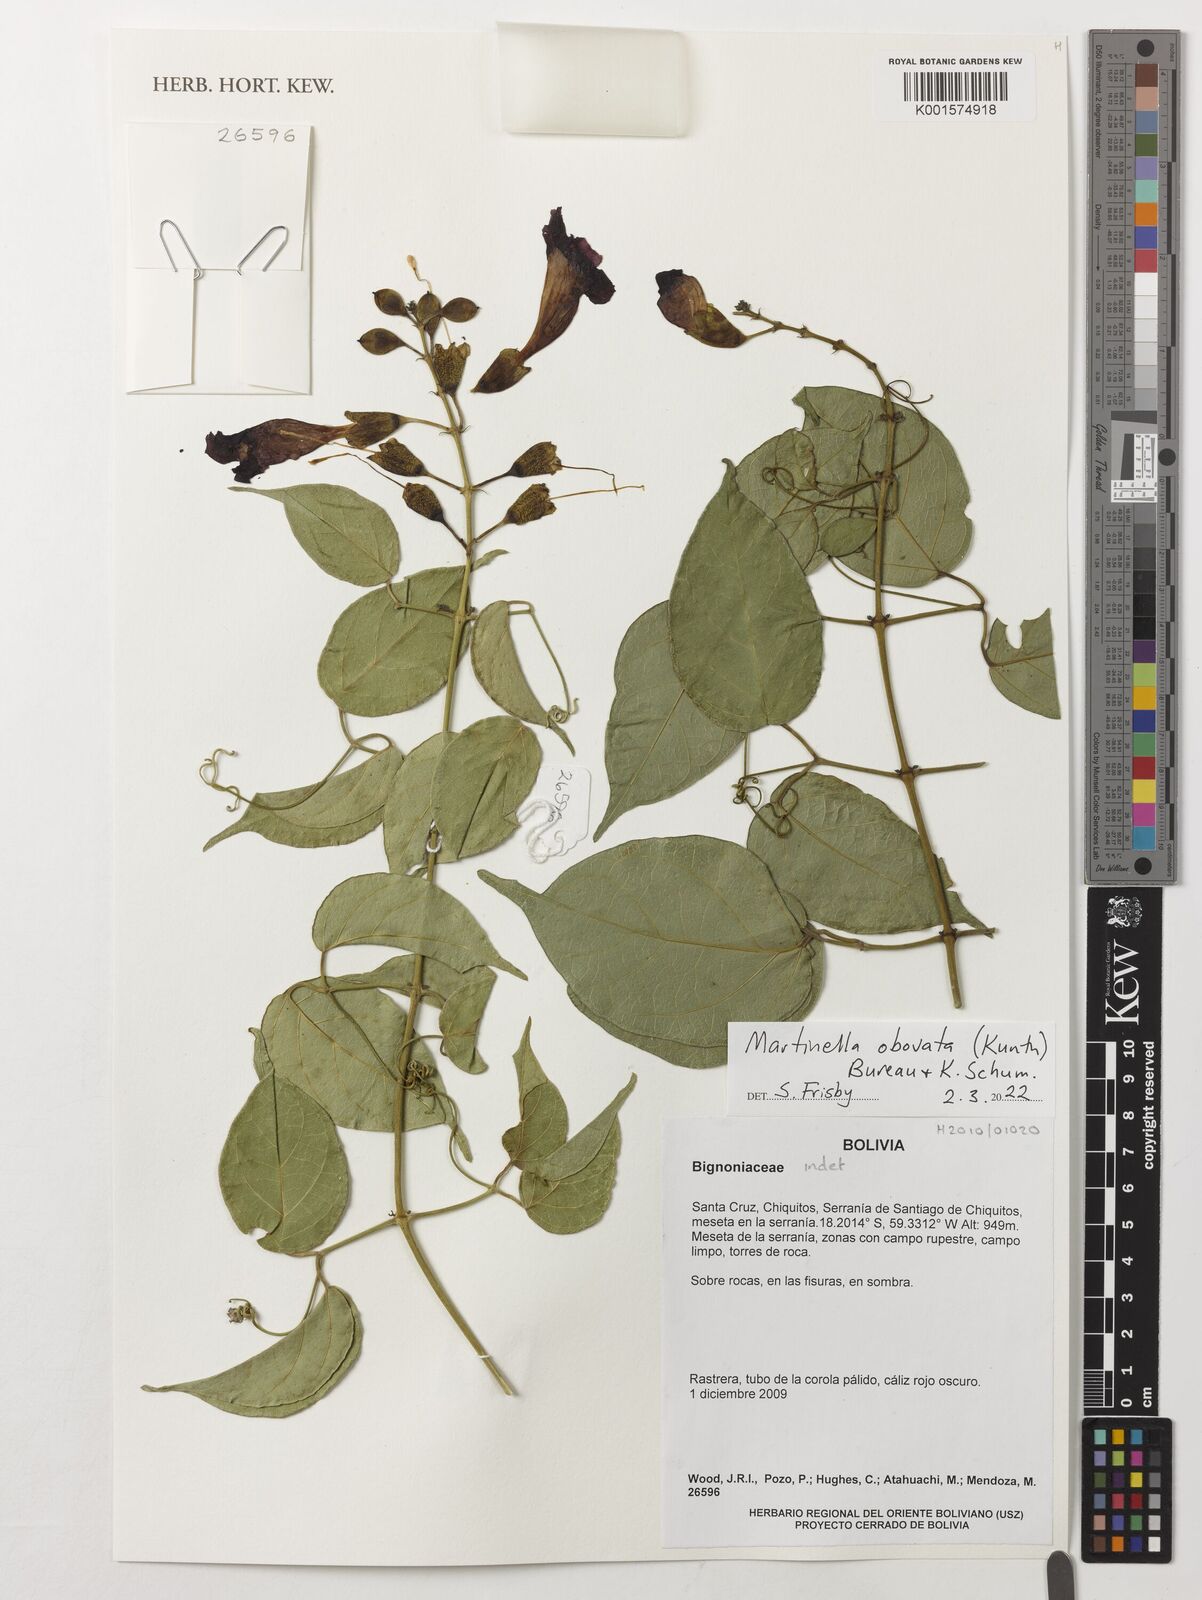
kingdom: Animalia
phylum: Arthropoda
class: Insecta
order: Coleoptera
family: Chrysomelidae
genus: Martinella
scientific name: Martinella obovata
